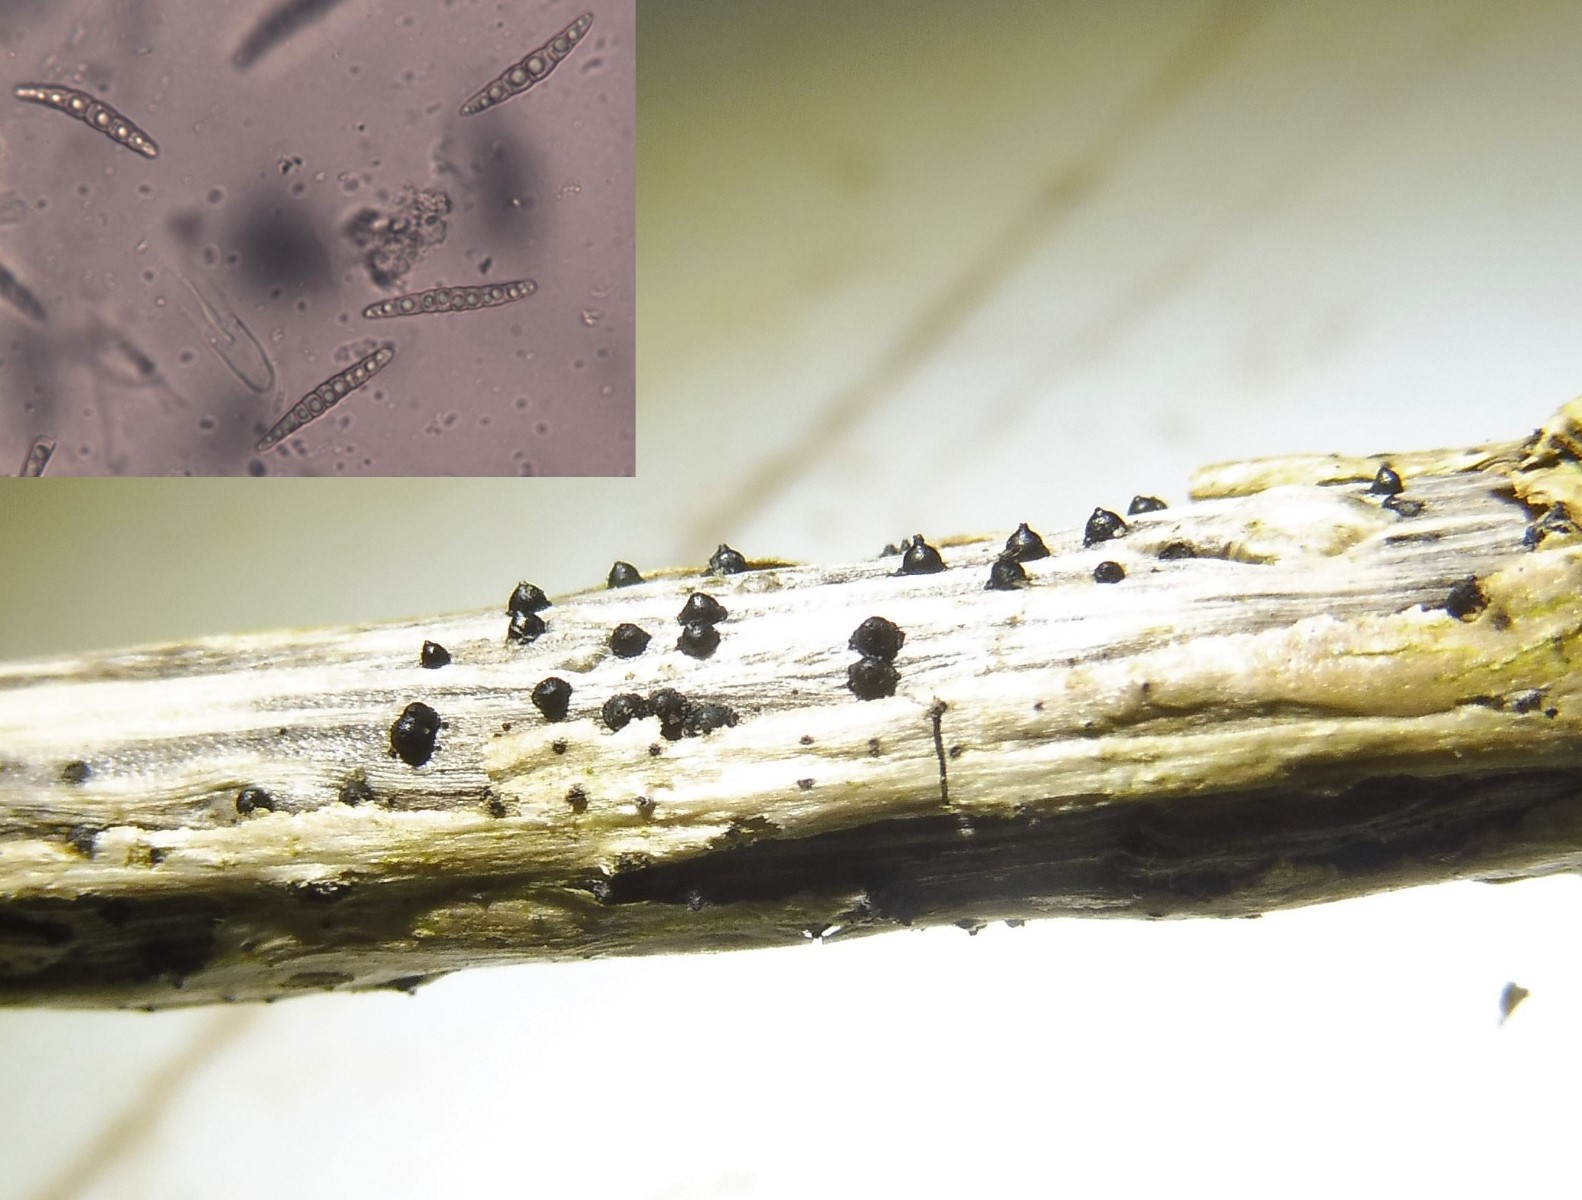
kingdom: Fungi
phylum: Ascomycota
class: Dothideomycetes
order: Pleosporales
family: Leptosphaeriaceae
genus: Leptosphaeria
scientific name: Leptosphaeria acuta
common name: spids kulkegle
